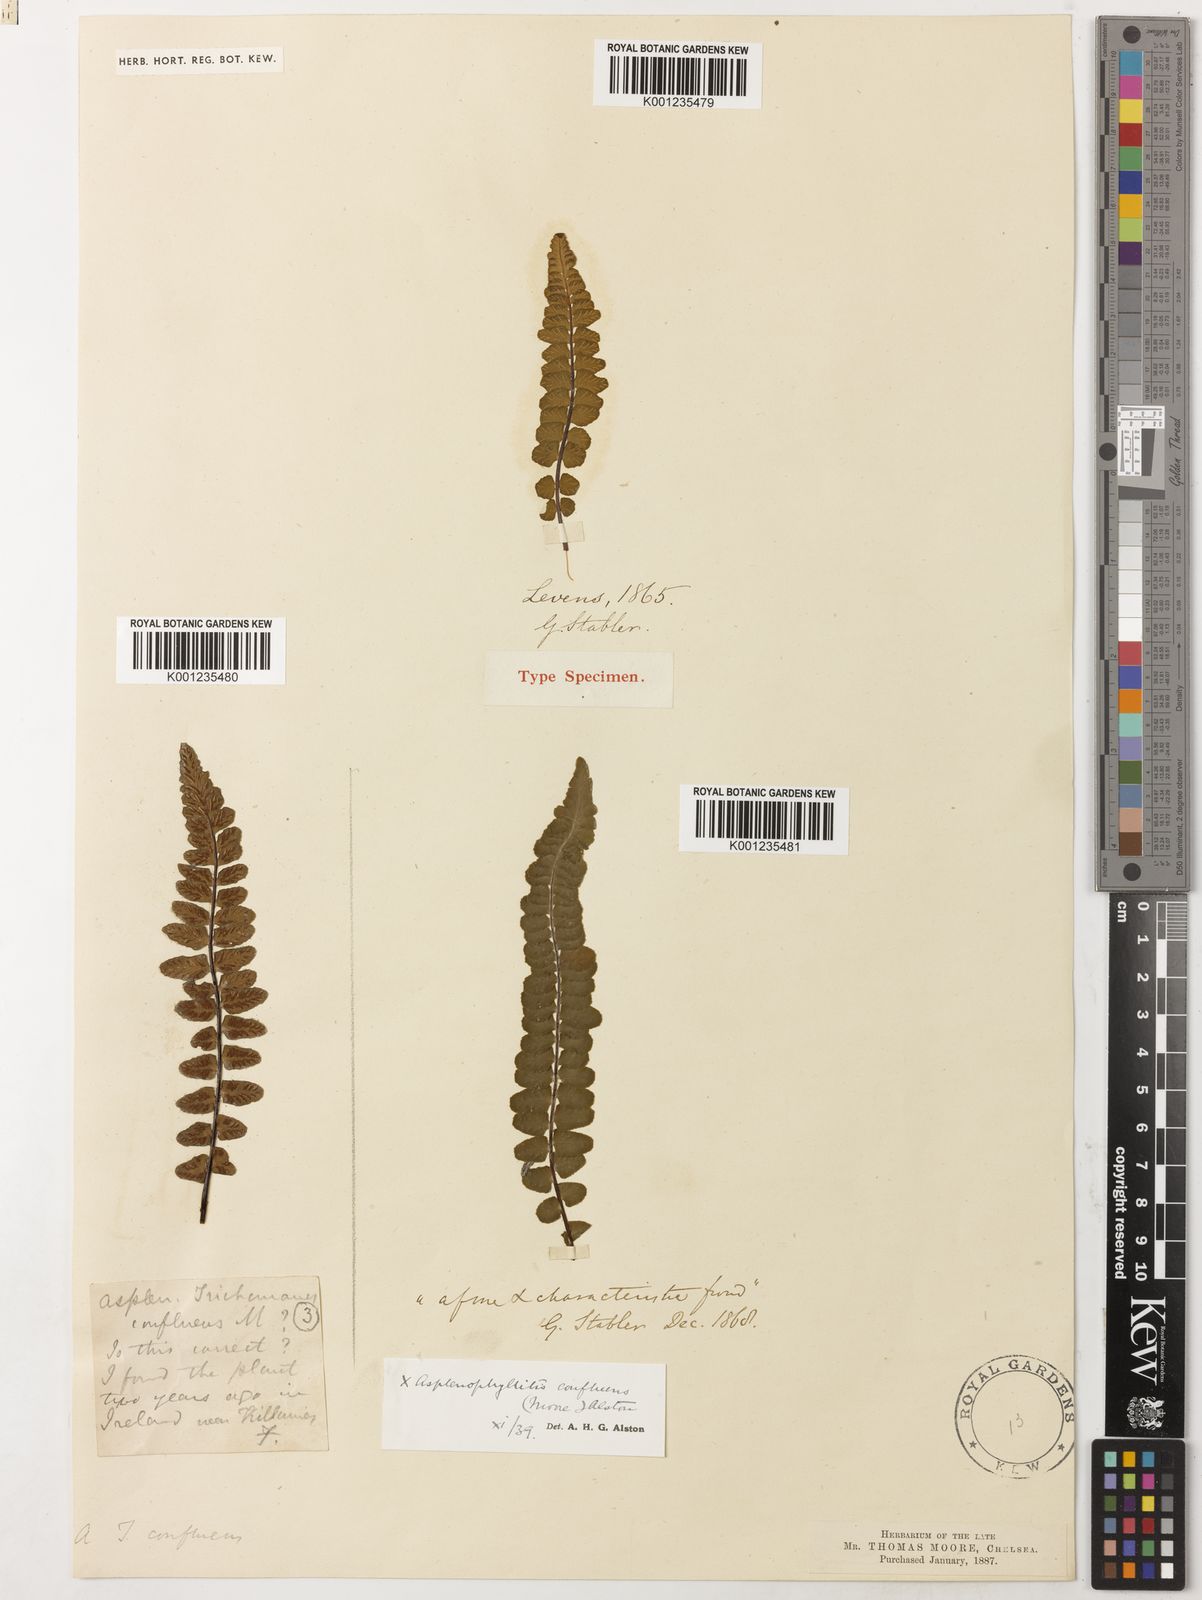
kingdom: Plantae
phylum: Tracheophyta
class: Polypodiopsida
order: Polypodiales
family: Aspleniaceae
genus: Asplenium
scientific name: Asplenium lawalreei
